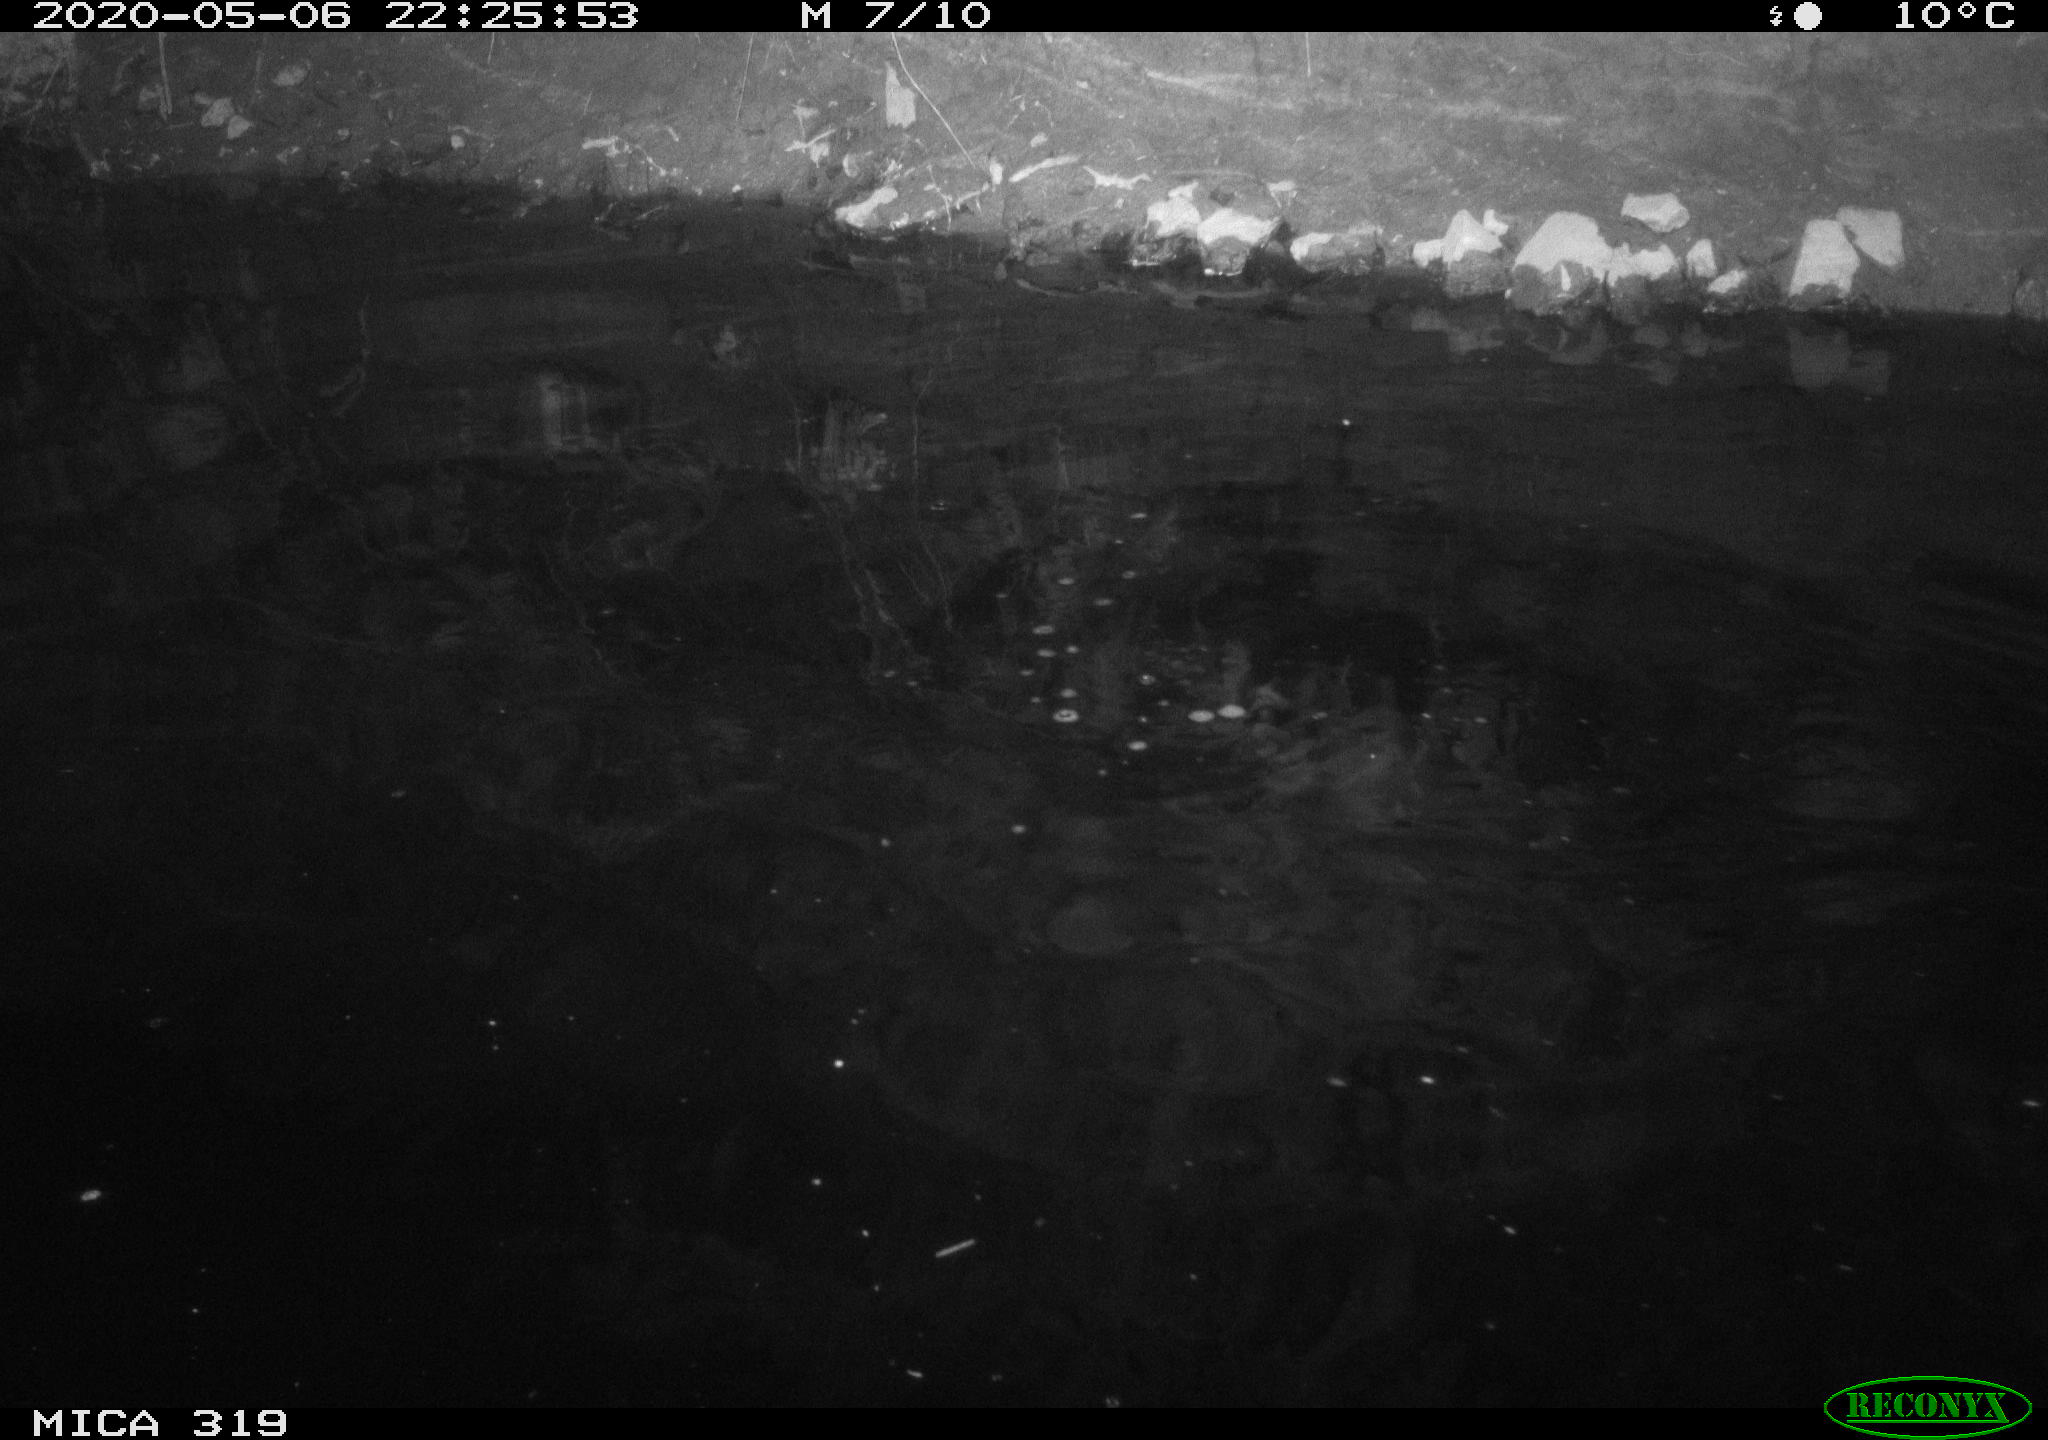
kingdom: Animalia
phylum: Chordata
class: Aves
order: Anseriformes
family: Anatidae
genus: Anas
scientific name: Anas platyrhynchos
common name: Mallard
